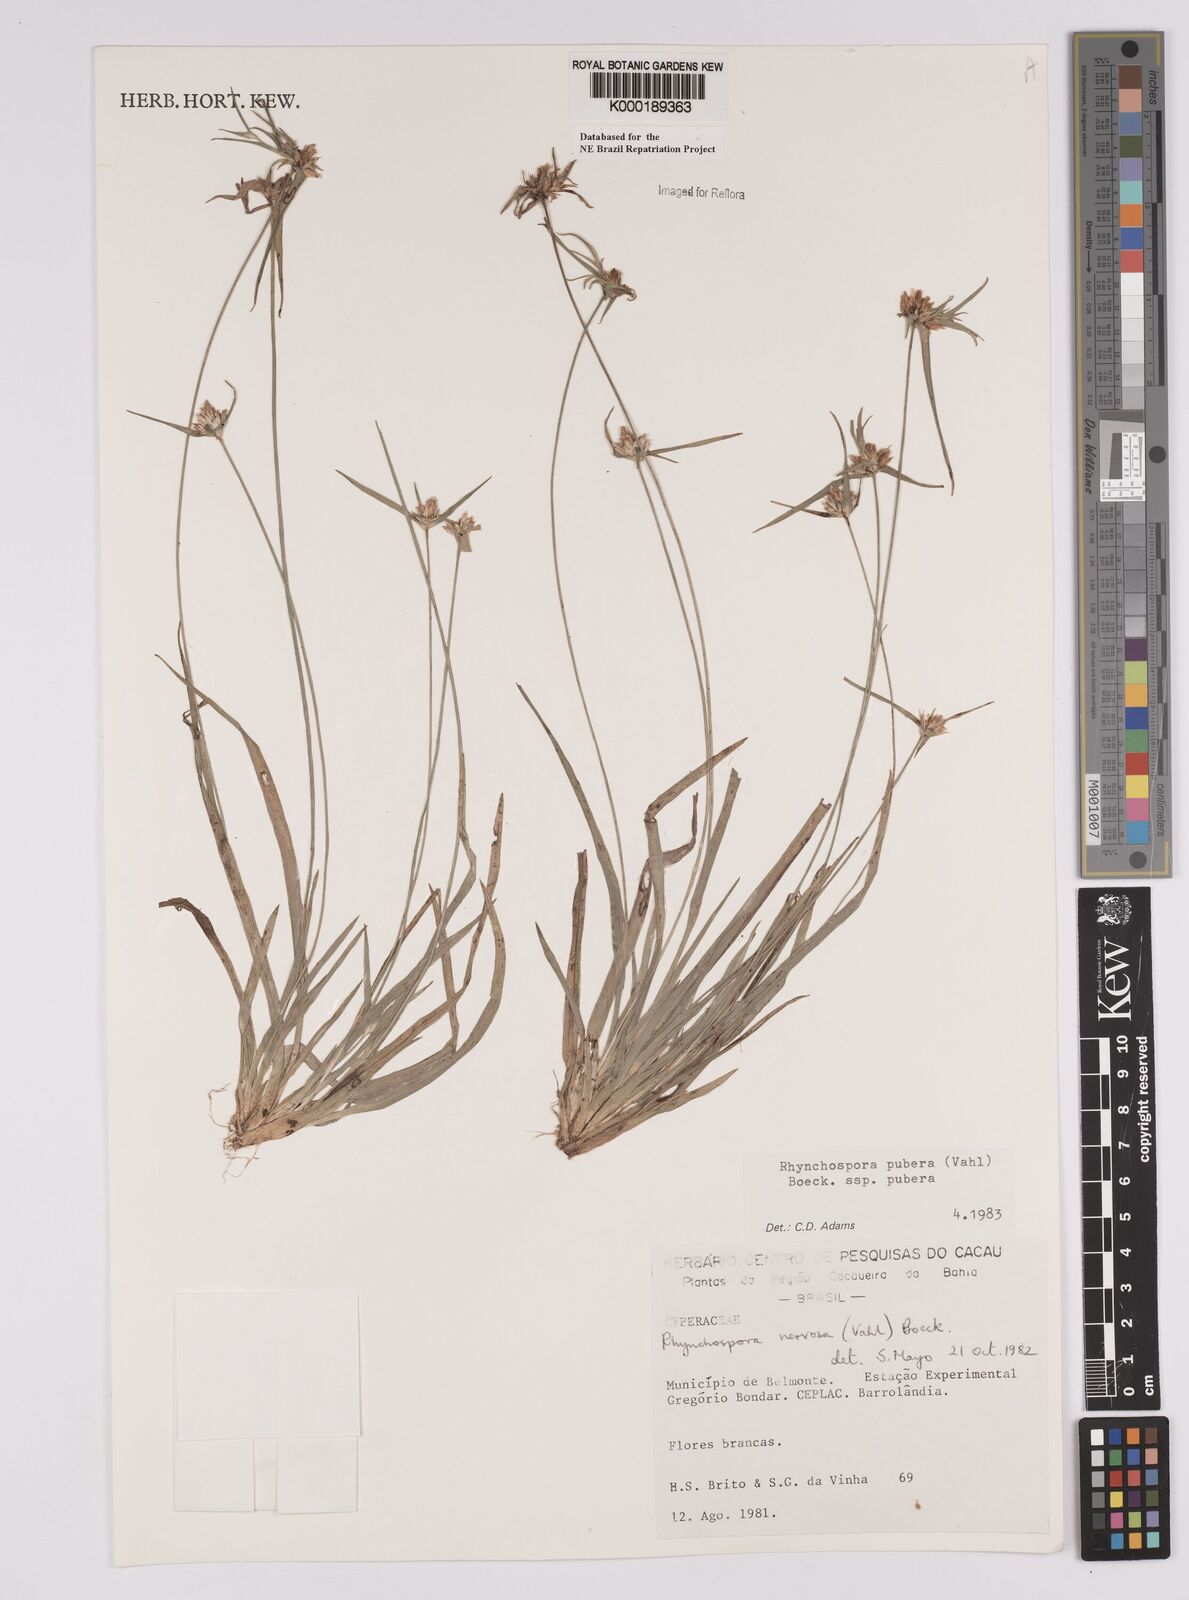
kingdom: Plantae
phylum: Tracheophyta
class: Liliopsida
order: Poales
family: Cyperaceae
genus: Rhynchospora
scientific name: Rhynchospora pubera
